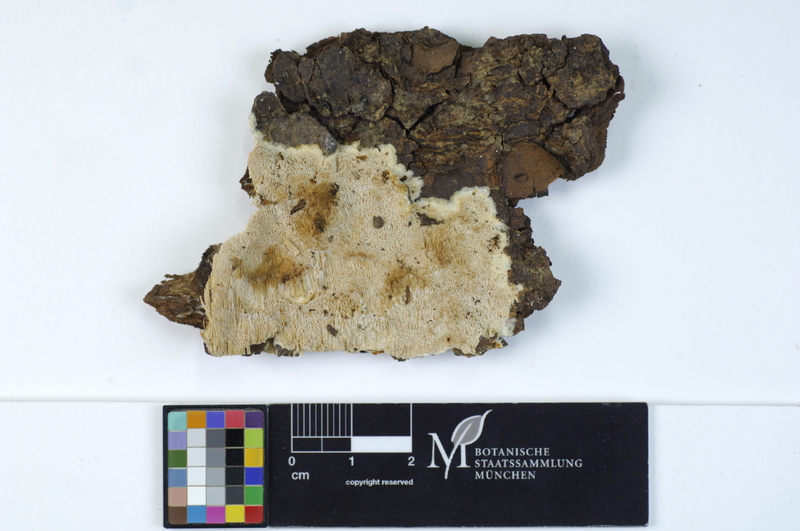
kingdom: Plantae
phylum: Tracheophyta
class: Pinopsida
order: Pinales
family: Pinaceae
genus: Picea
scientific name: Picea
